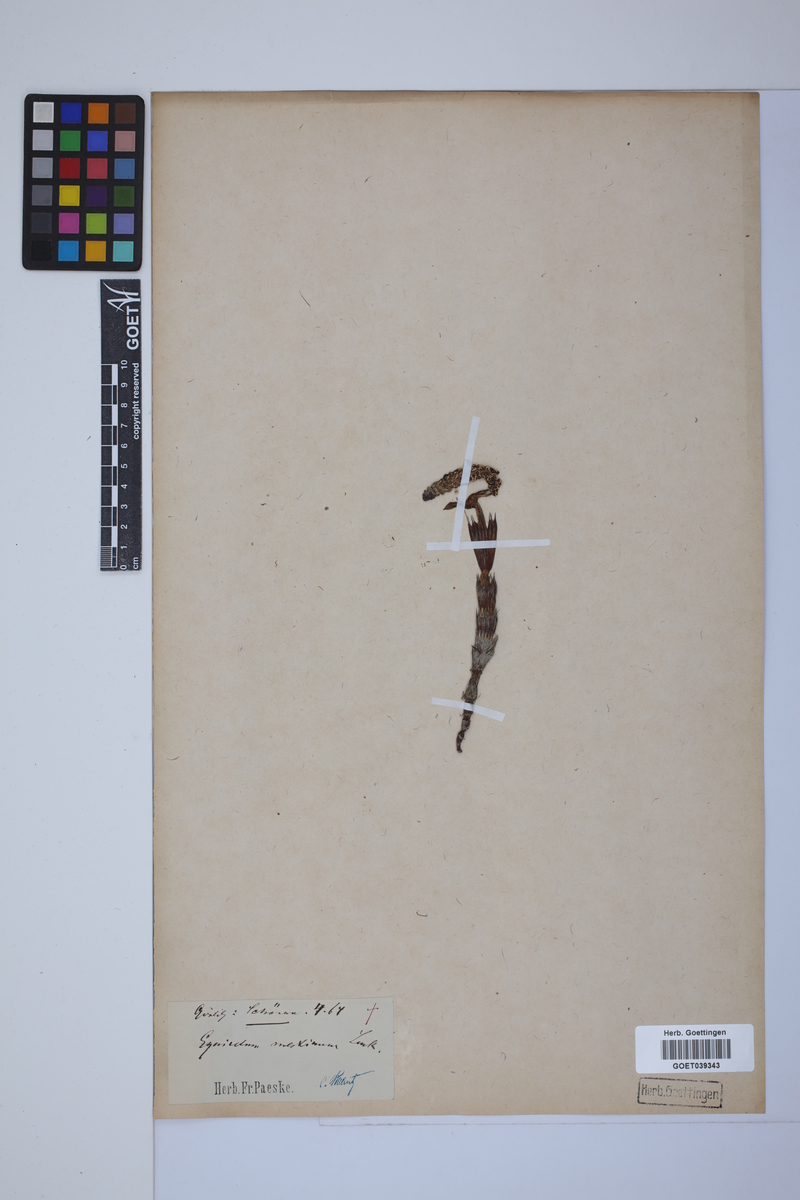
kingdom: Plantae
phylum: Tracheophyta
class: Polypodiopsida
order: Equisetales
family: Equisetaceae
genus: Equisetum
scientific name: Equisetum telmateia
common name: Great horsetail
